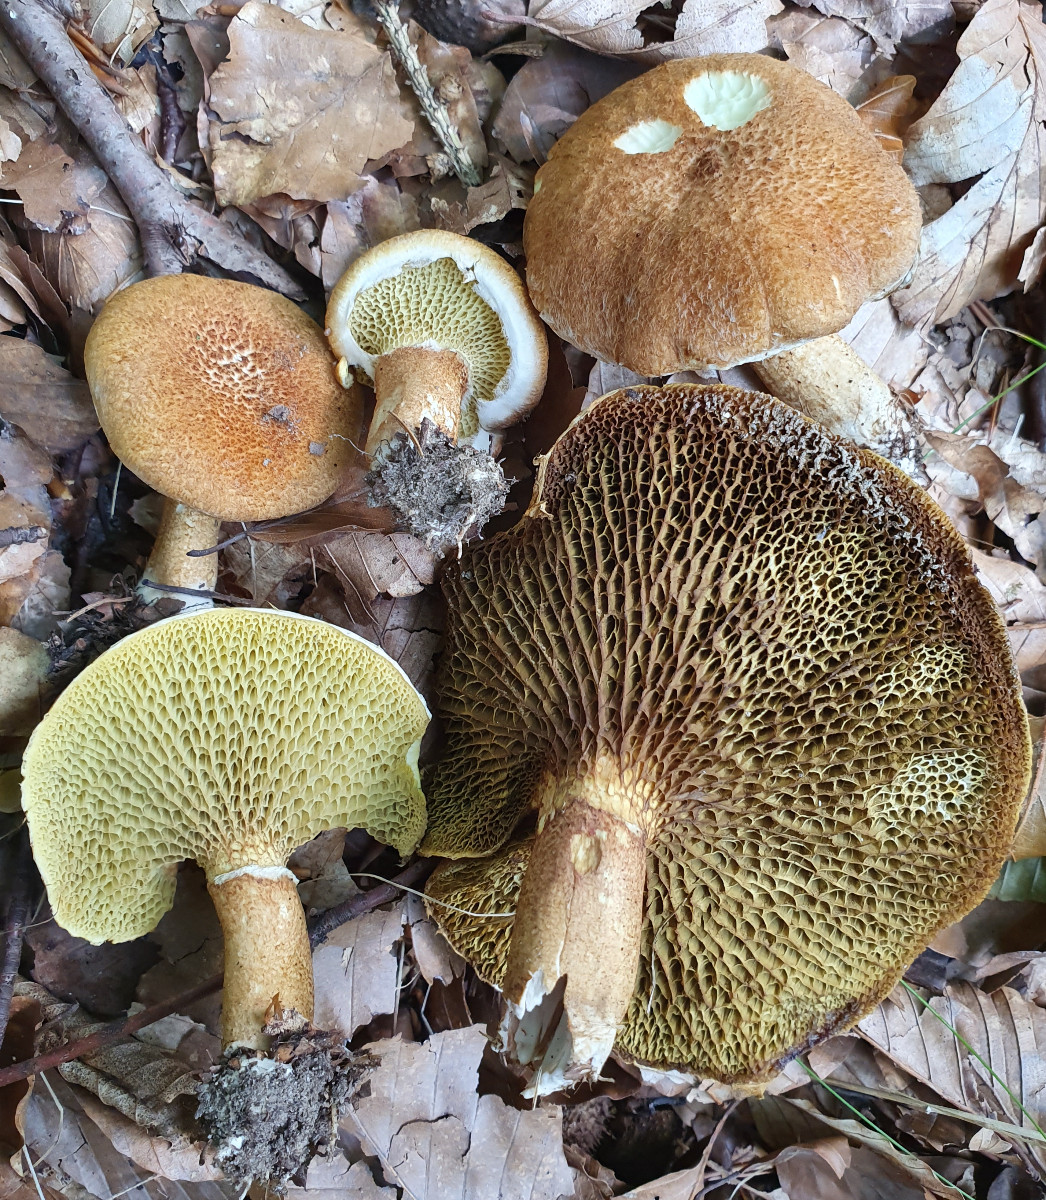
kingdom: Fungi
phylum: Basidiomycota
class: Agaricomycetes
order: Boletales
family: Suillaceae
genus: Suillus
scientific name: Suillus cavipes
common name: hulstokket slimrørhat
